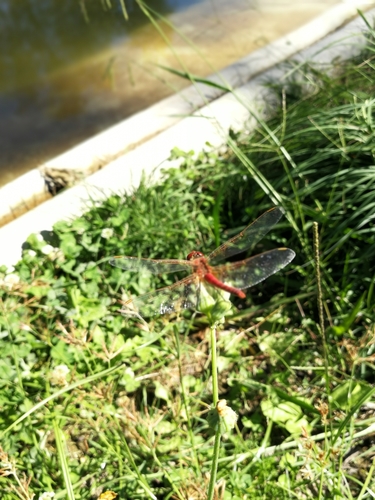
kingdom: Animalia
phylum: Arthropoda
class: Insecta
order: Odonata
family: Libellulidae
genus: Sympetrum
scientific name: Sympetrum fonscolombii
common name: Red-veined darter
